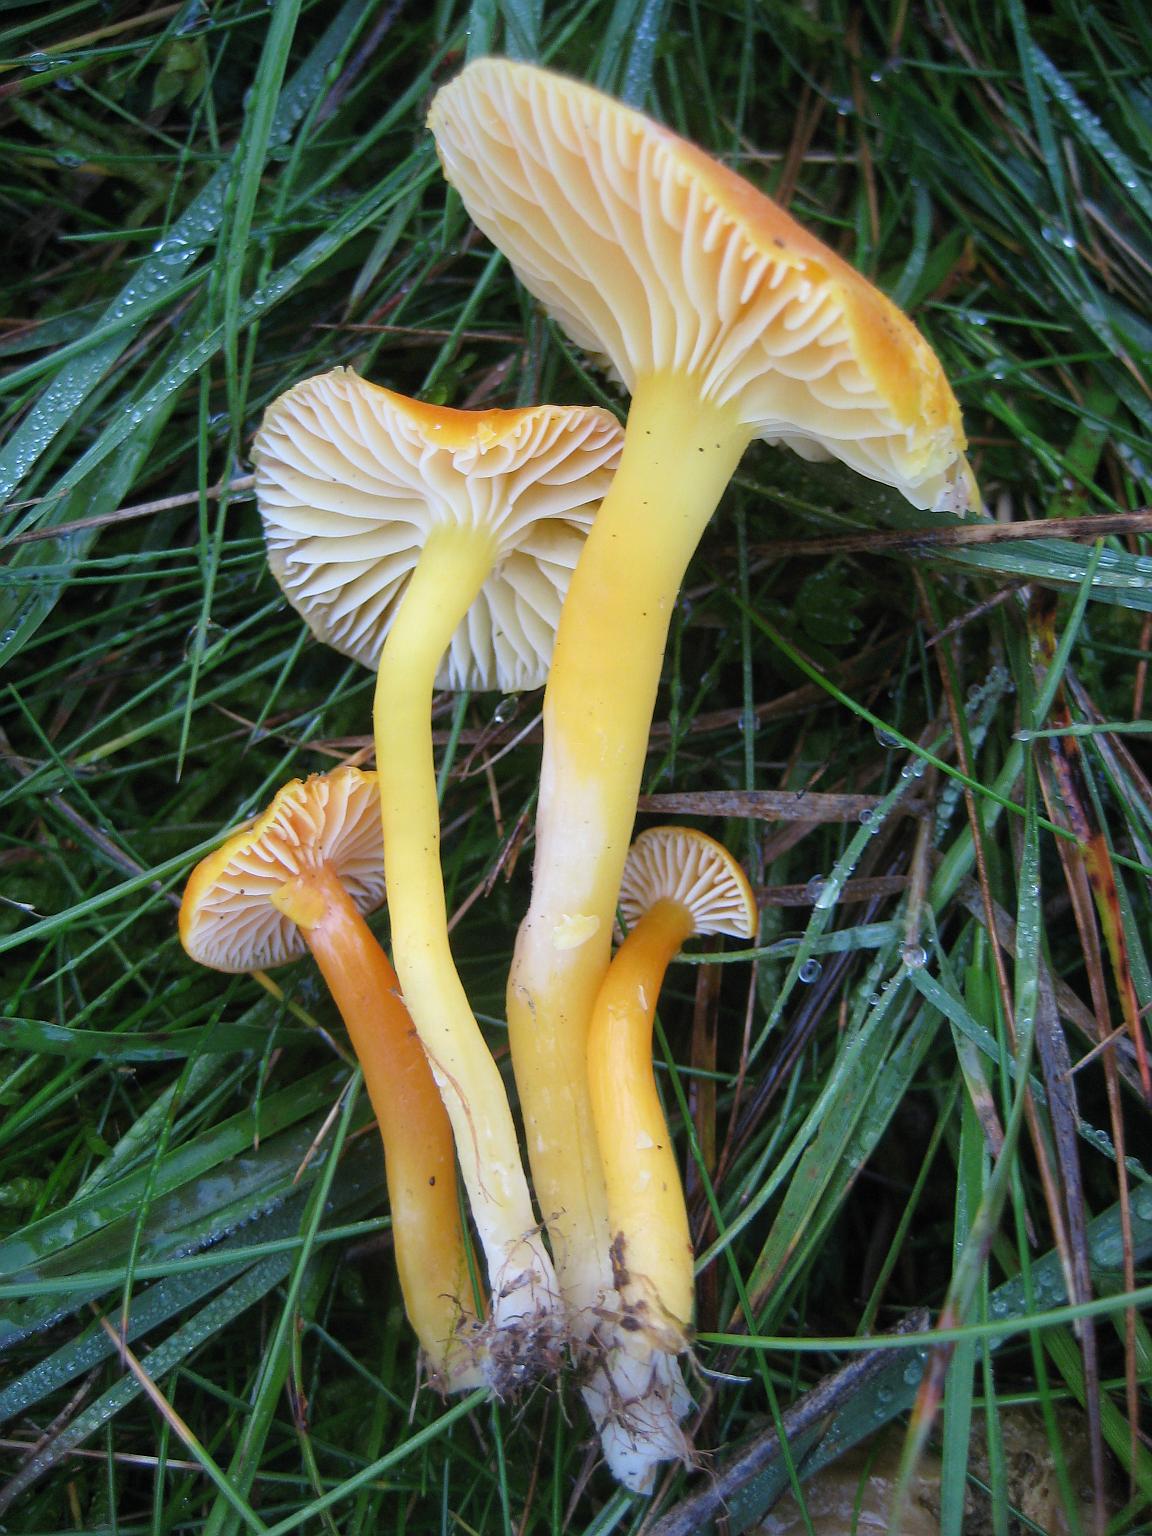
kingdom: Fungi
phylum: Basidiomycota
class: Agaricomycetes
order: Agaricales
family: Hygrophoraceae
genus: Hygrocybe
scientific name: Hygrocybe miniata
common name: mønje-vokshat
